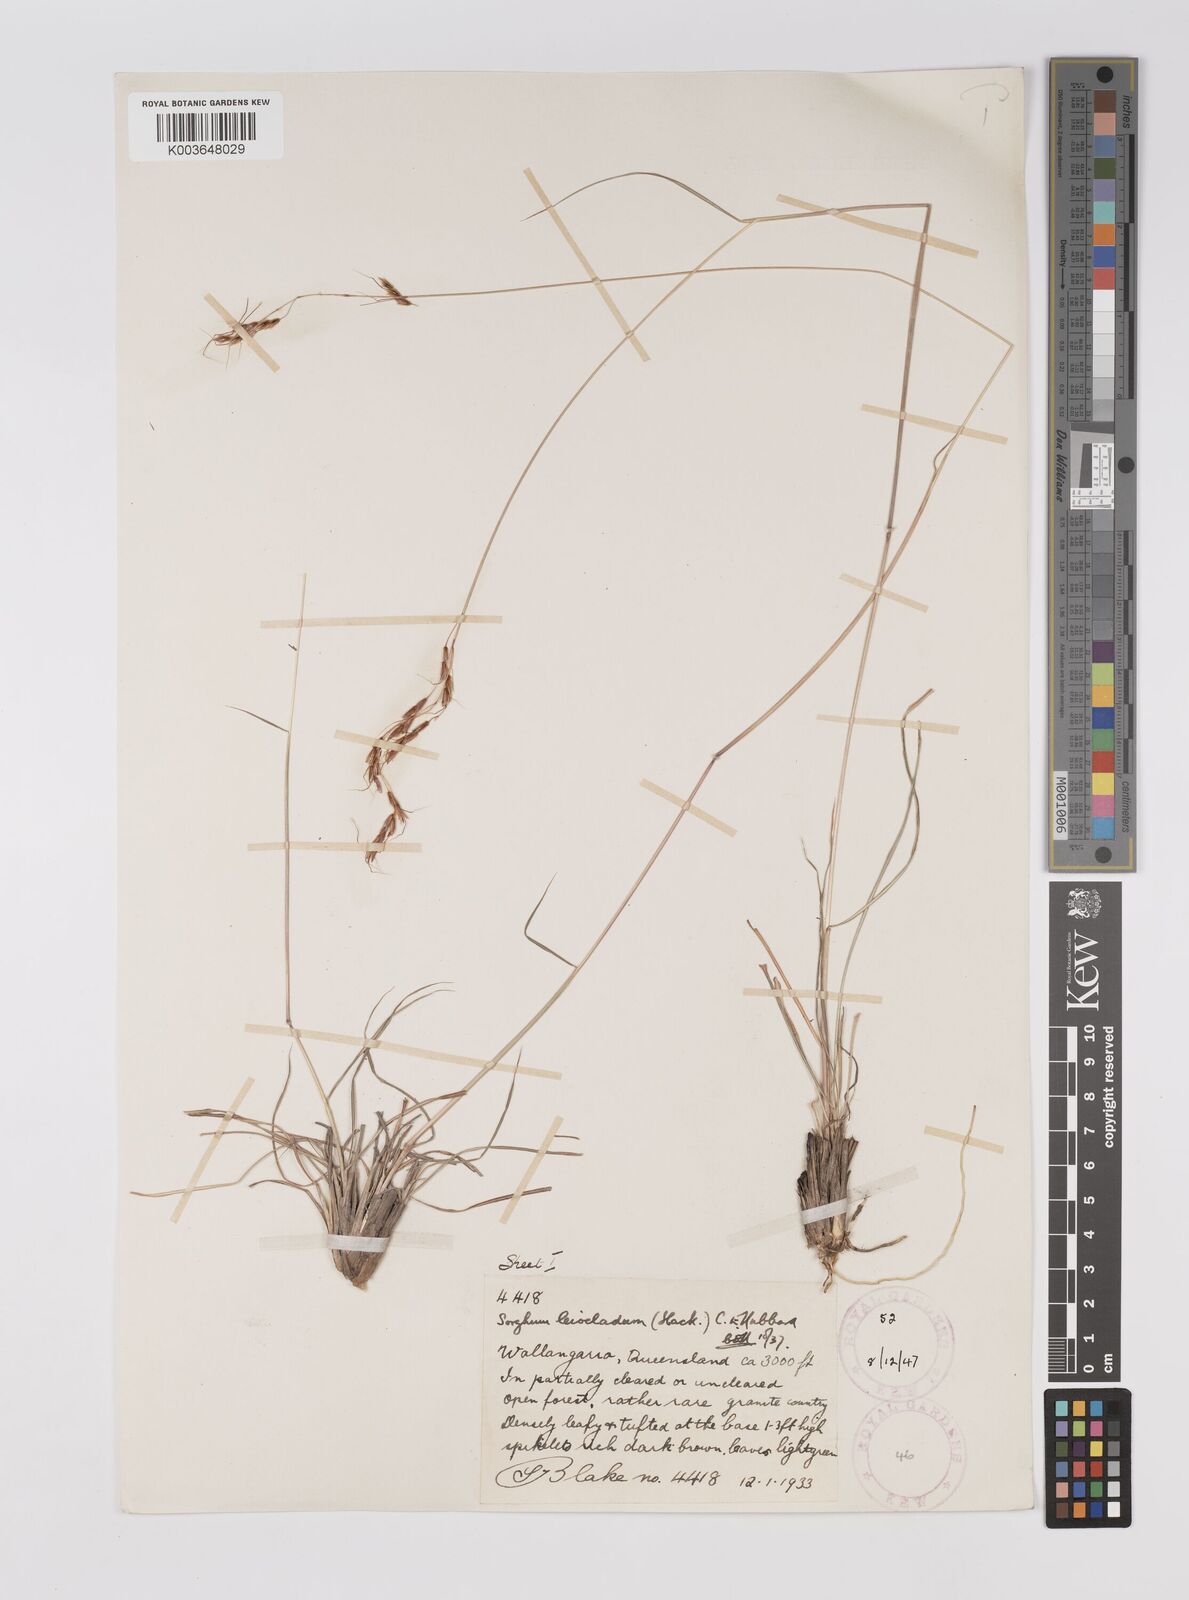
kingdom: Plantae
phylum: Tracheophyta
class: Liliopsida
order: Poales
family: Poaceae
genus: Sarga
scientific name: Sarga leioclada
